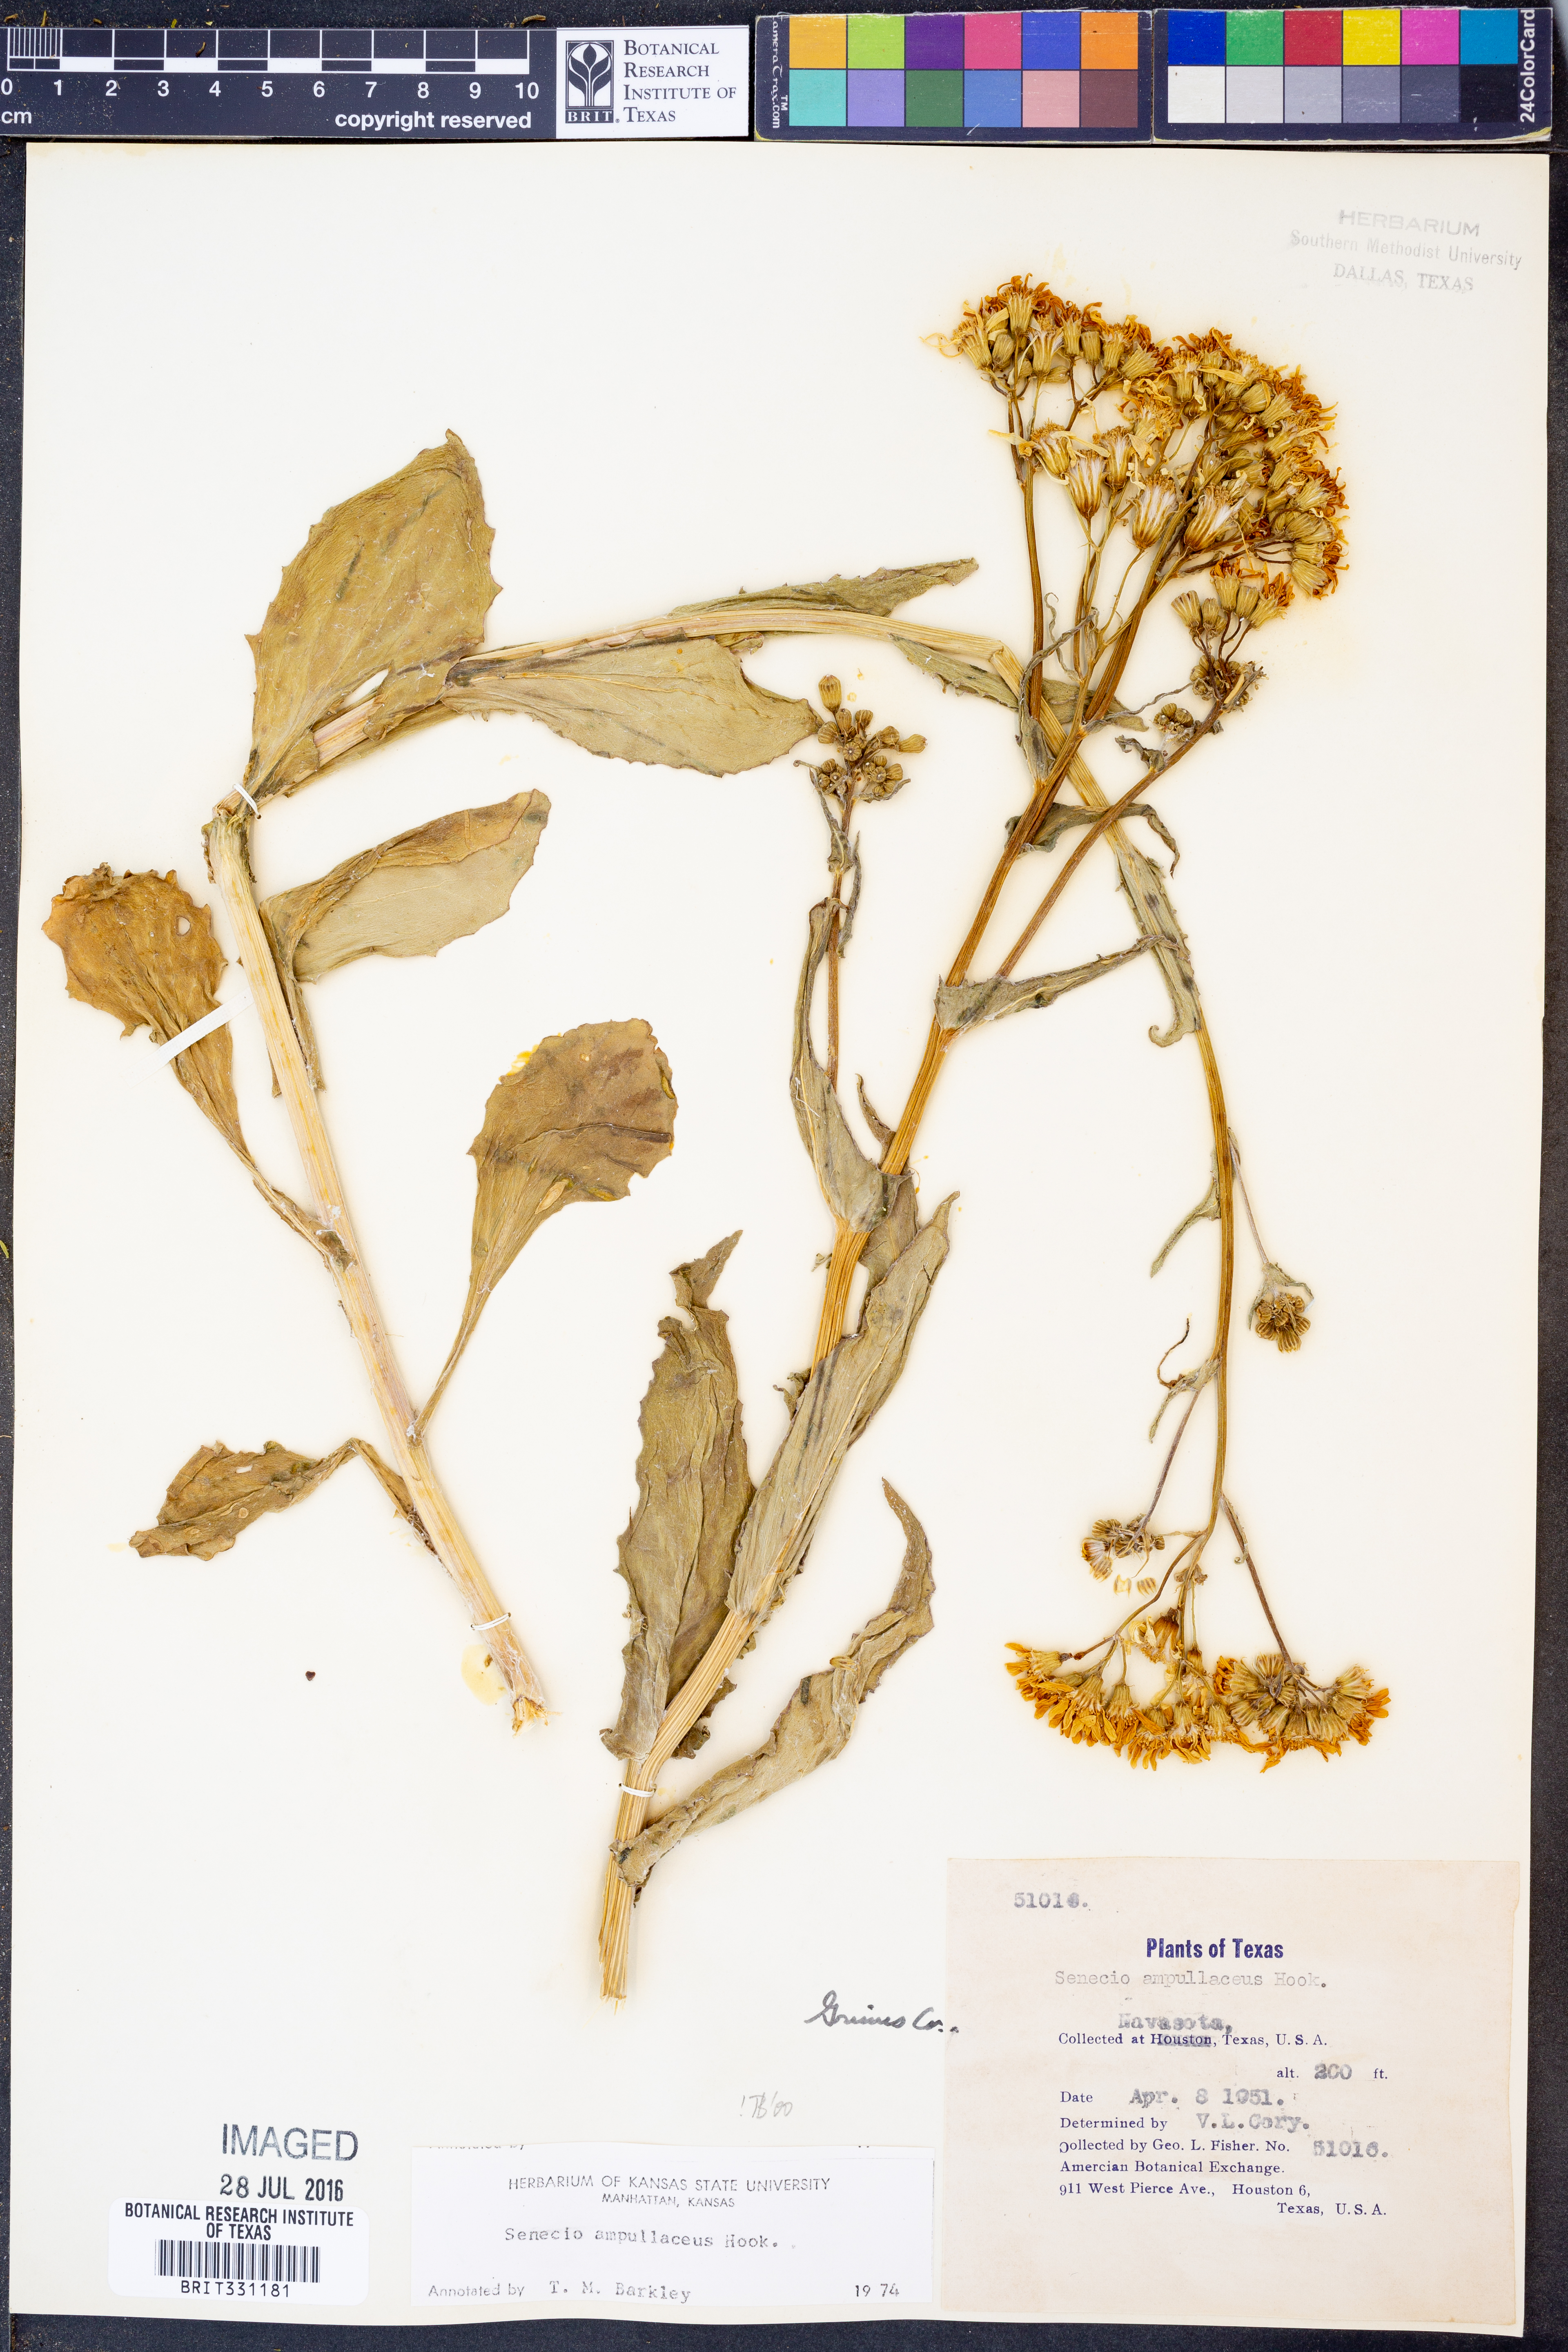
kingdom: Plantae
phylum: Tracheophyta
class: Magnoliopsida
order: Asterales
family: Asteraceae
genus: Senecio
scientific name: Senecio ampullaceus
